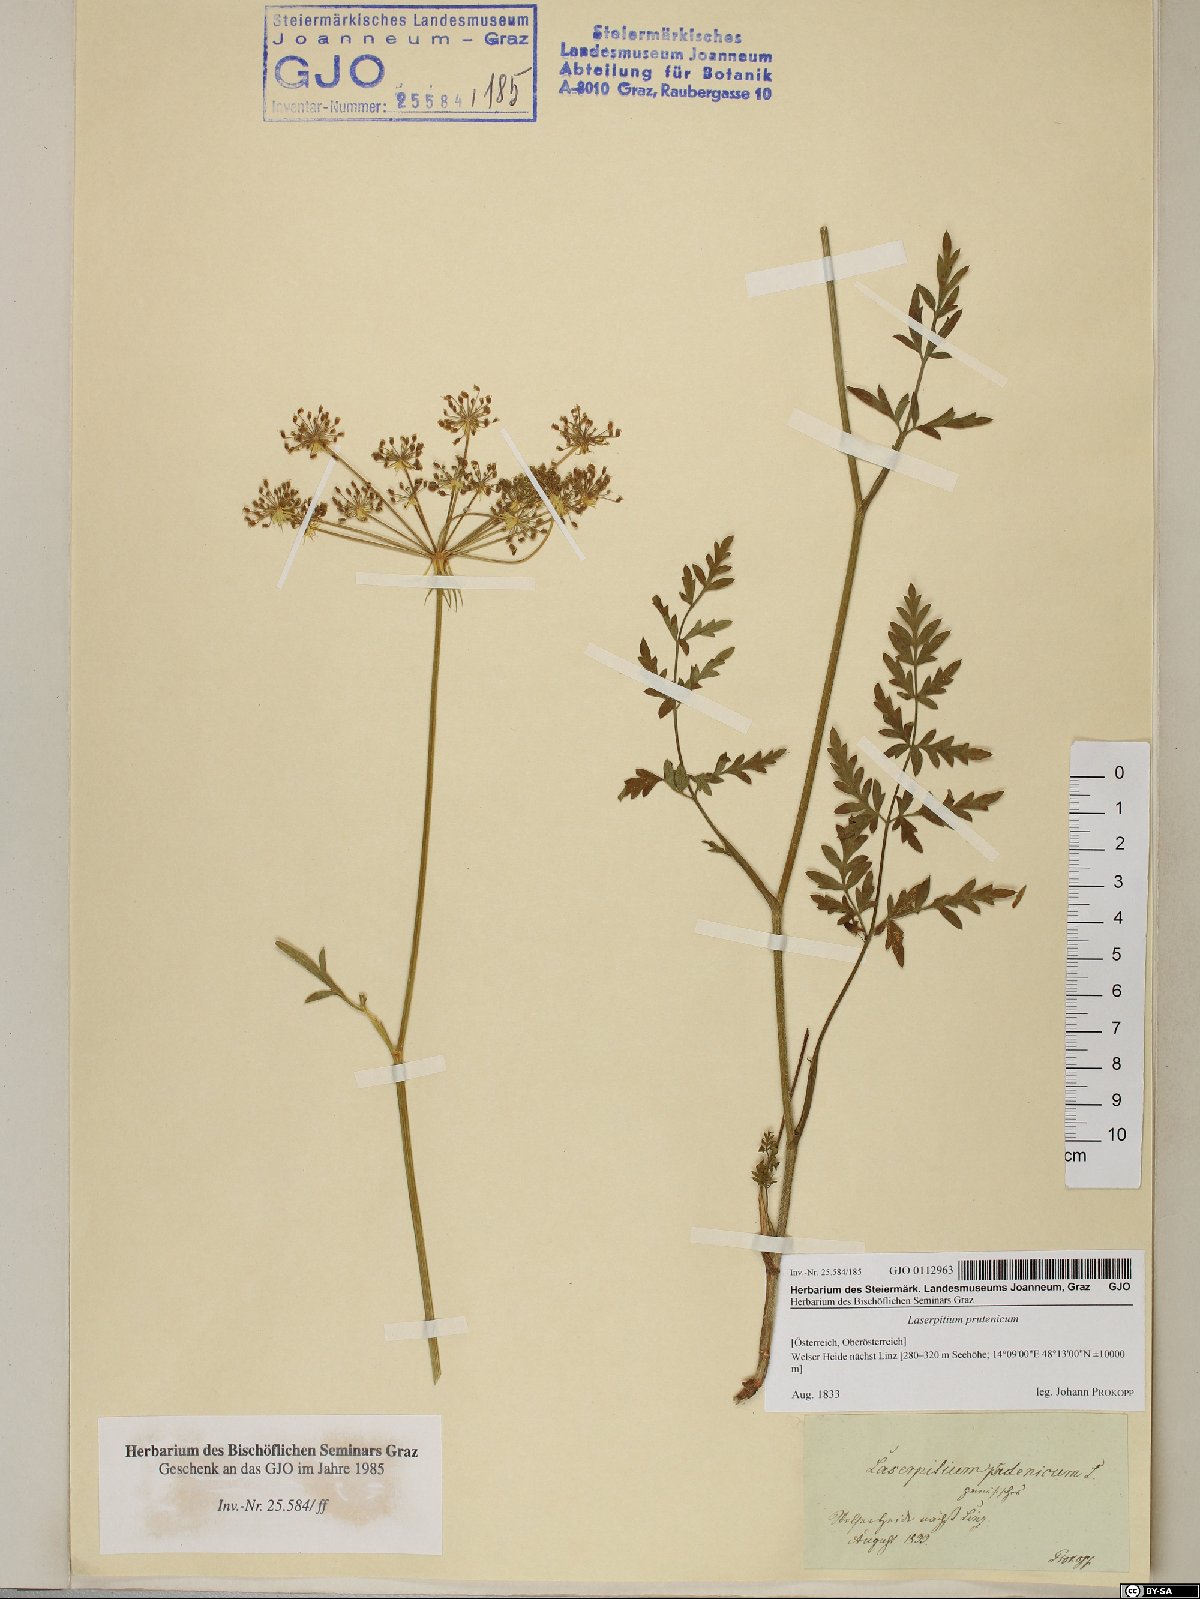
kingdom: Plantae
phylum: Tracheophyta
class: Magnoliopsida
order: Apiales
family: Apiaceae
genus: Silphiodaucus
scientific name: Silphiodaucus prutenicus
